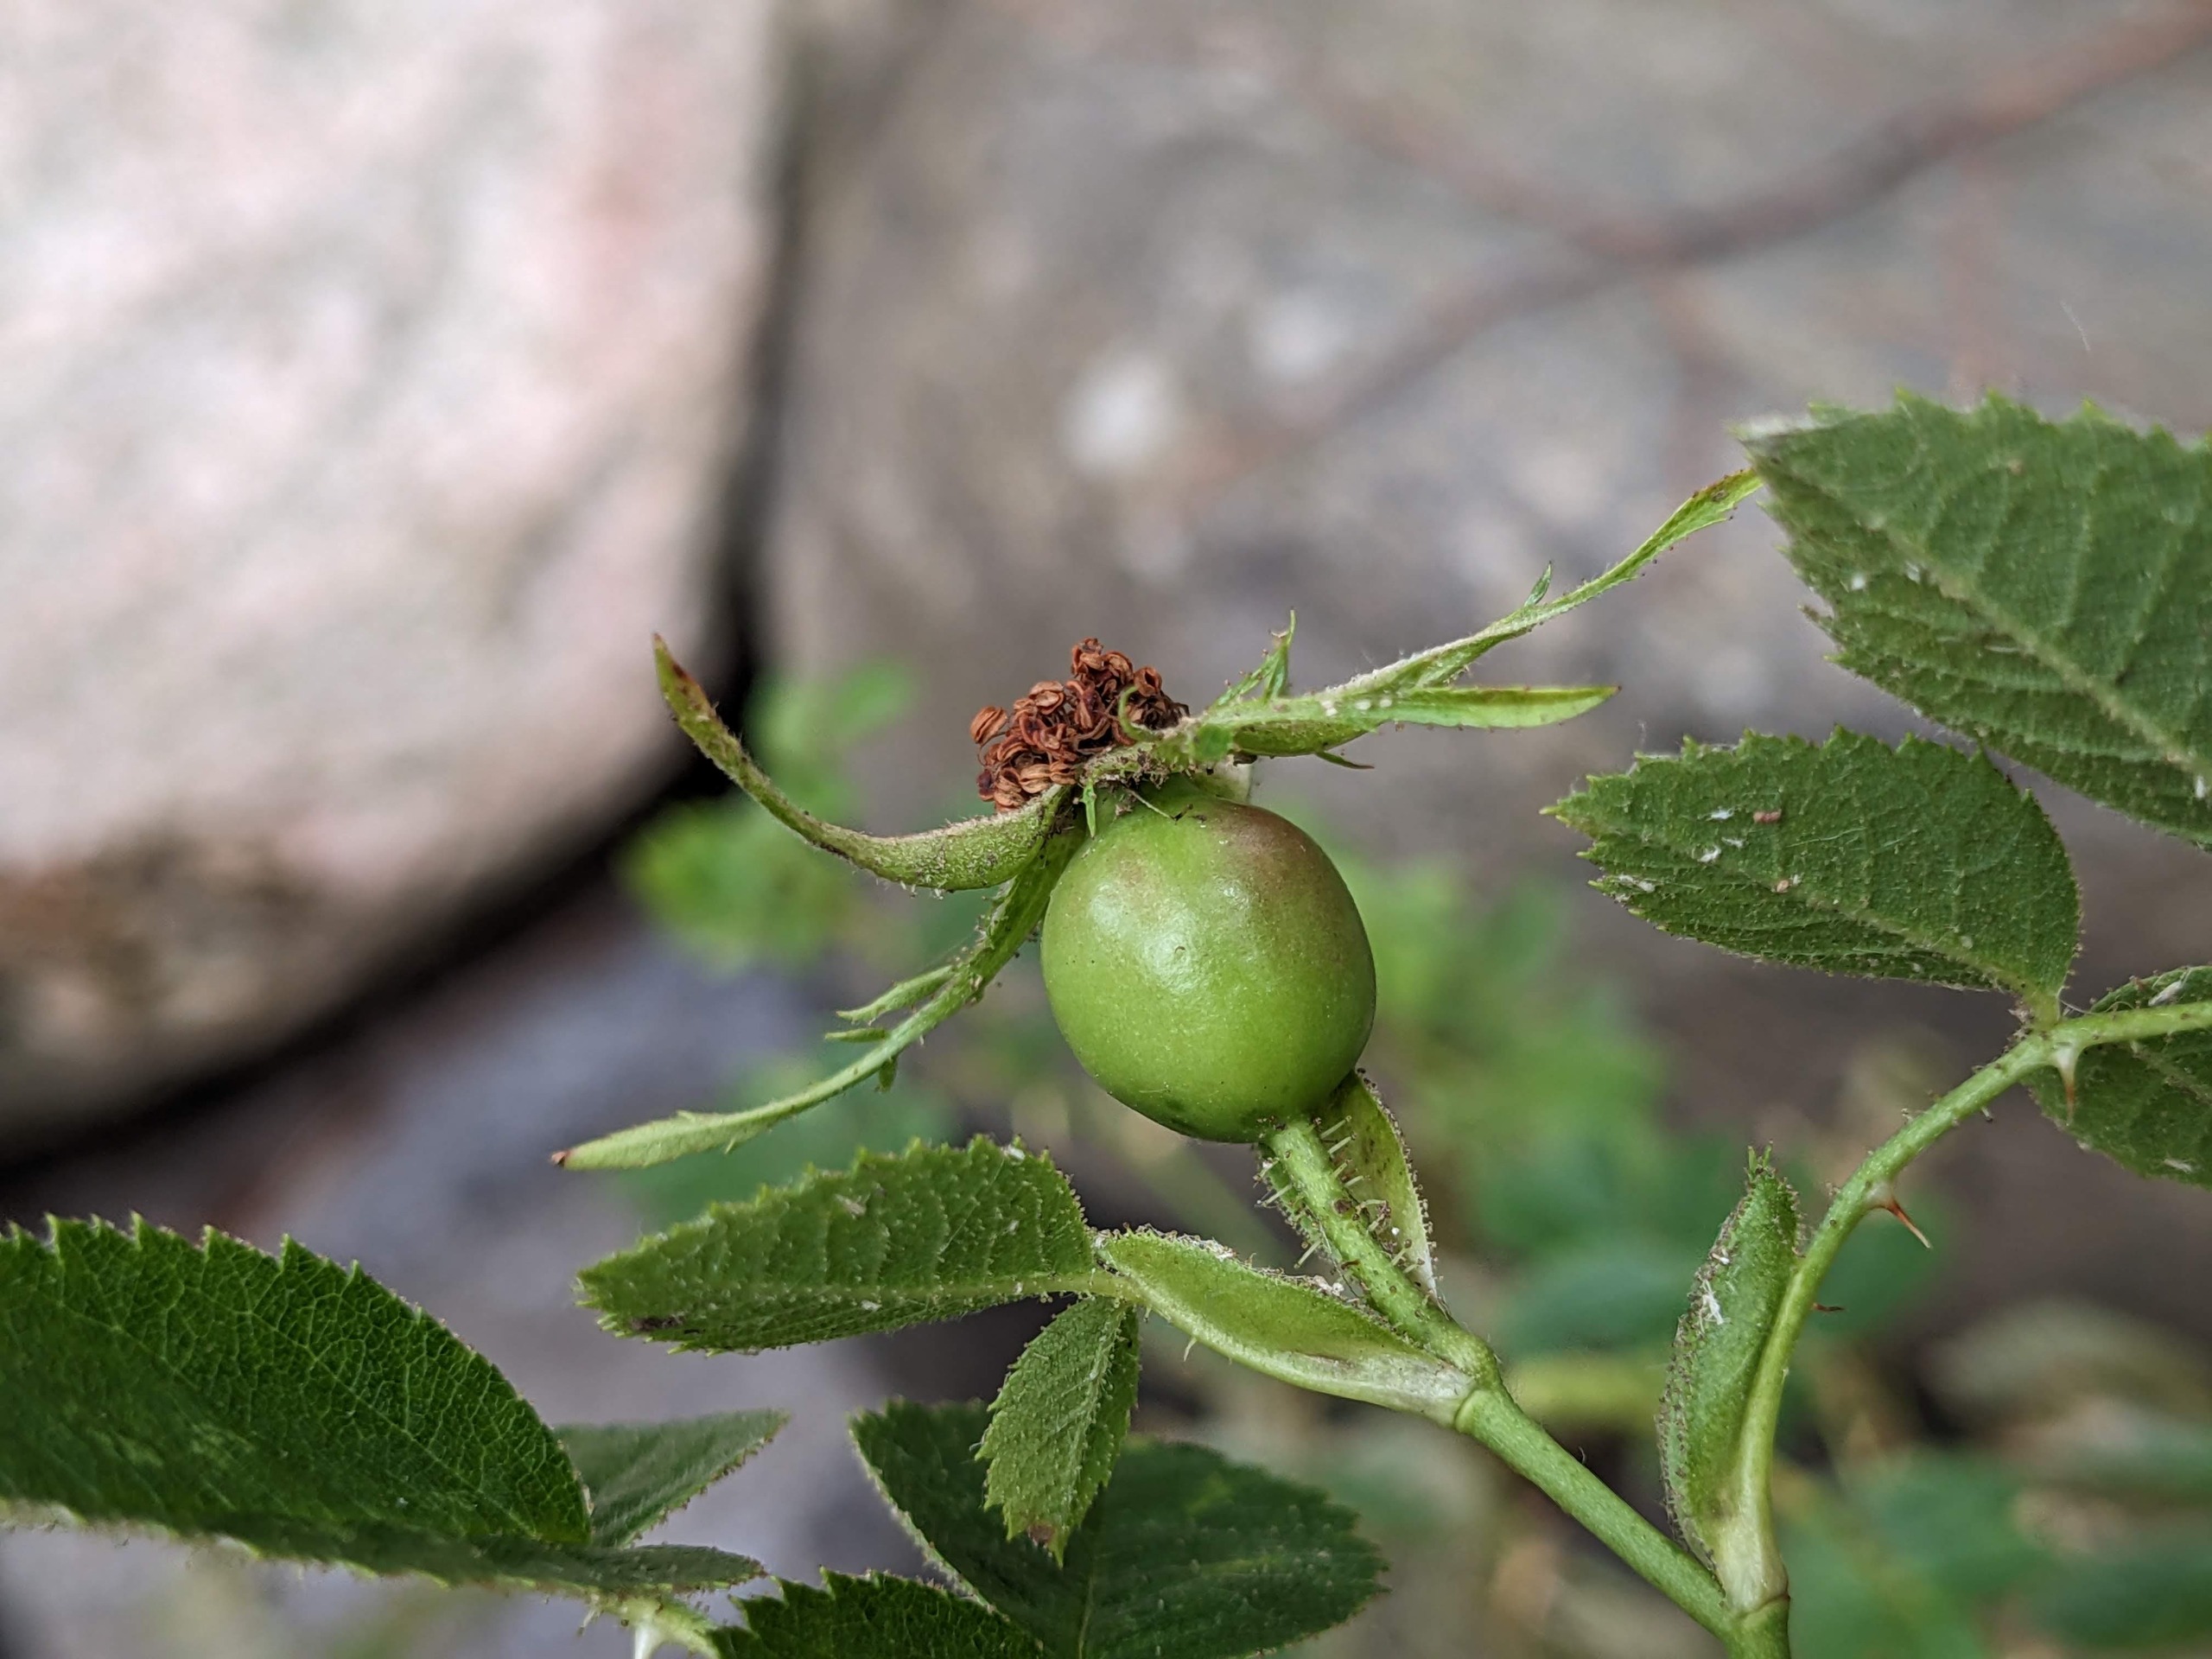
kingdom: Plantae
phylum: Tracheophyta
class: Magnoliopsida
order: Rosales
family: Rosaceae
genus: Rosa
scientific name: Rosa rubiginosa
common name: Æble-rose
